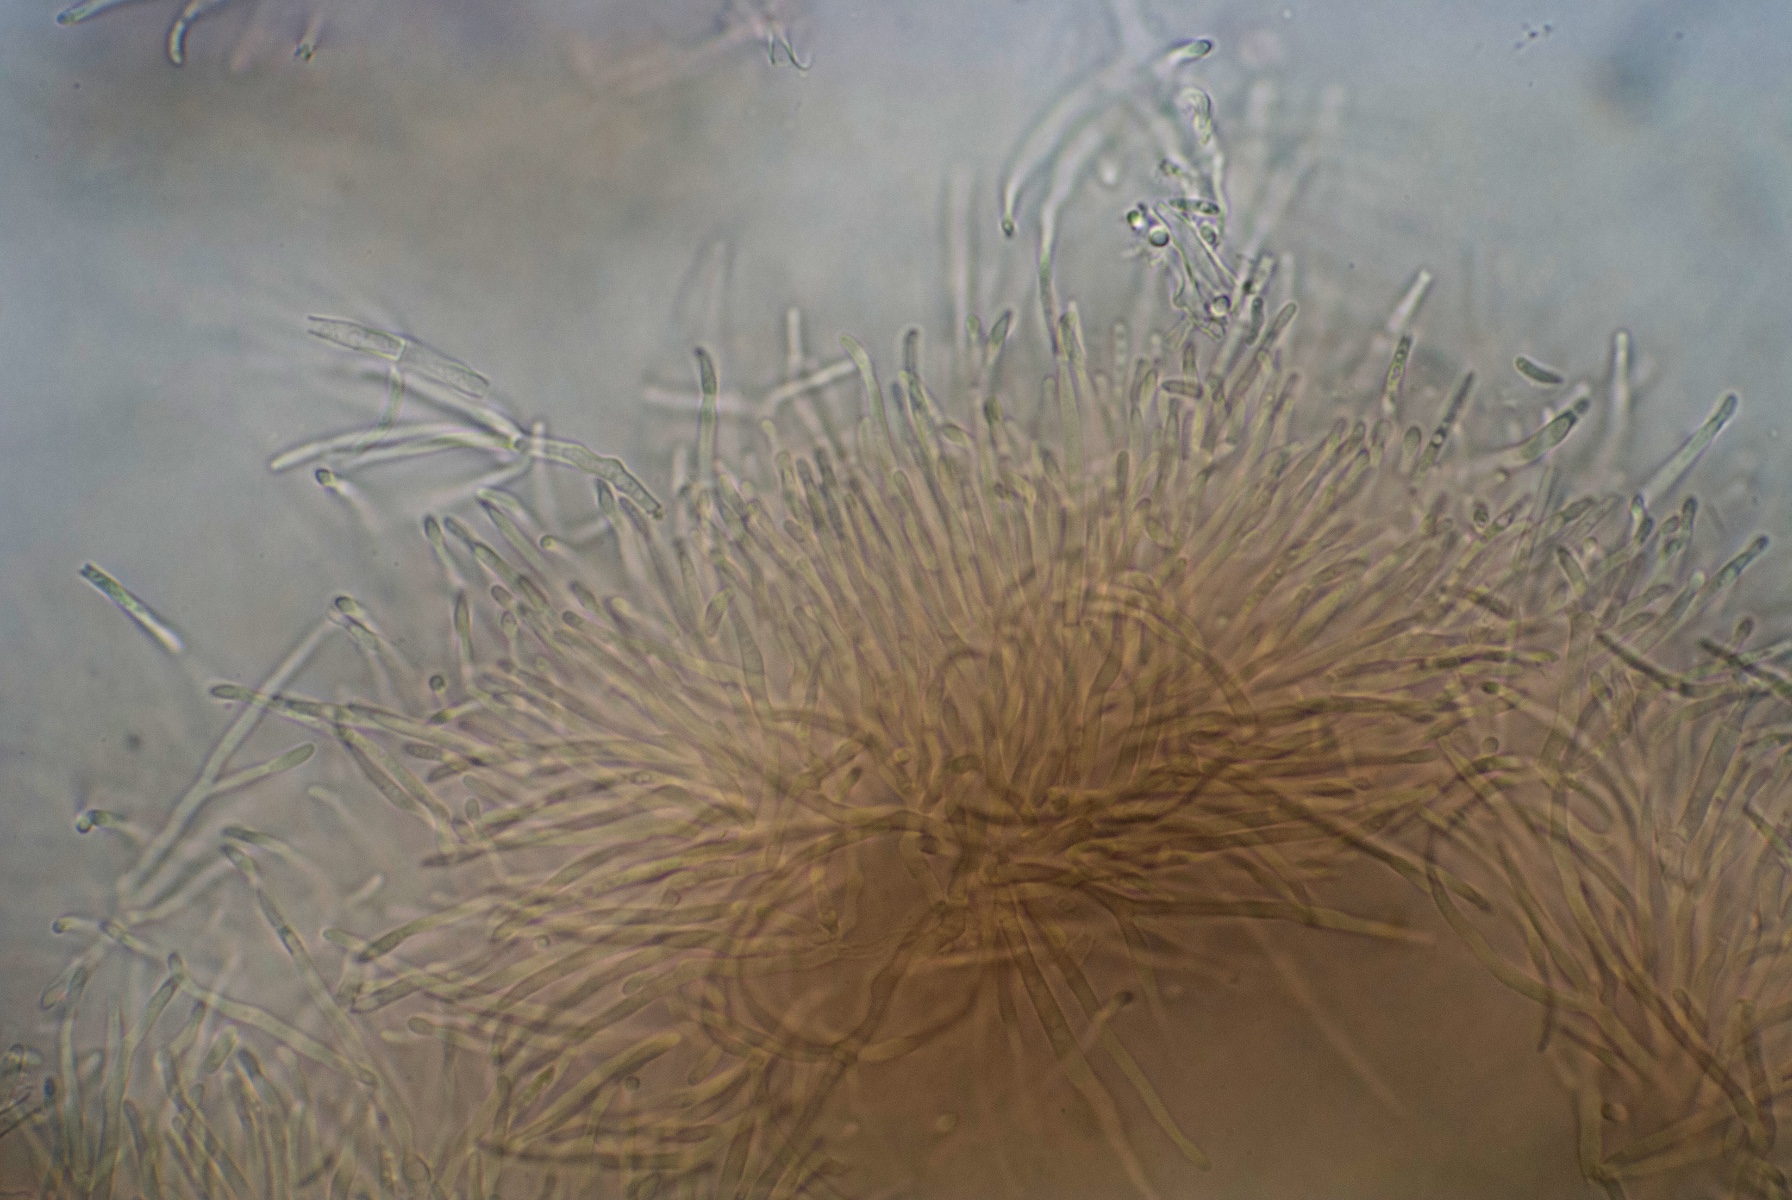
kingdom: Fungi
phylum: Ascomycota
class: Sordariomycetes
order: Hypocreales
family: Nectriaceae
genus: Dialonectria
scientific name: Dialonectria magnusiana
